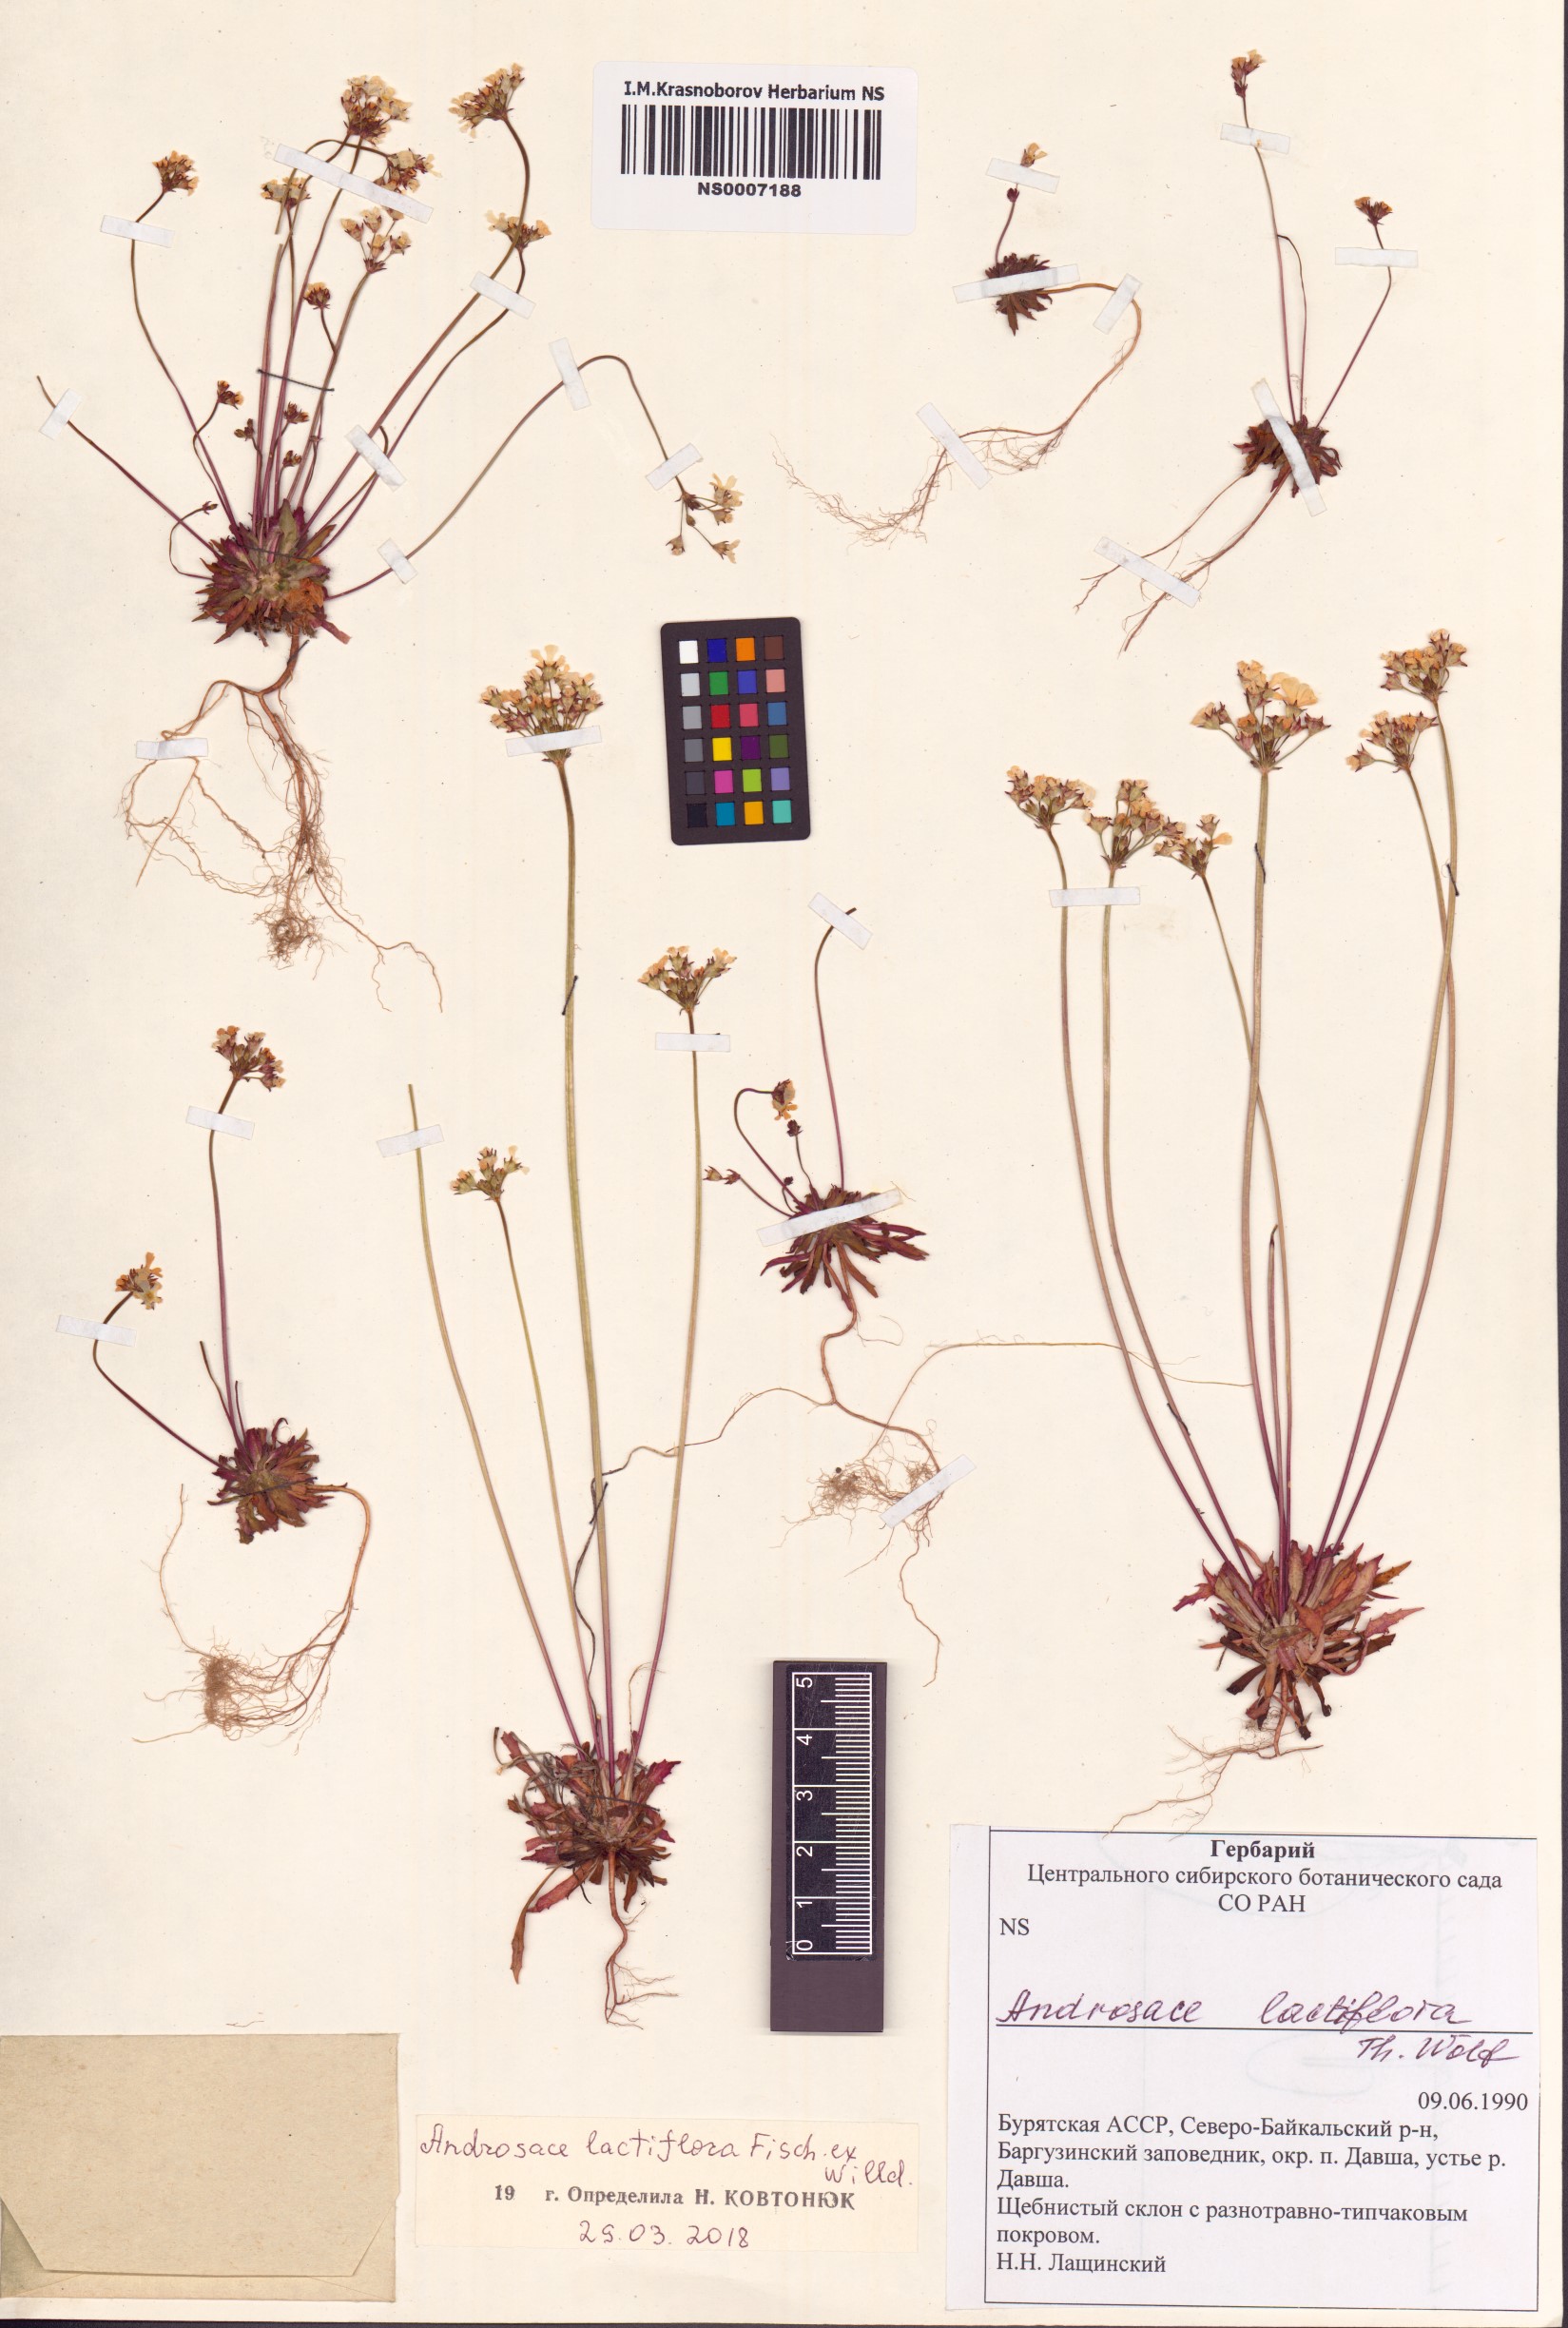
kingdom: Plantae
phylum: Tracheophyta
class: Magnoliopsida
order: Ericales
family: Primulaceae
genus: Androsace
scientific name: Androsace lactiflora
